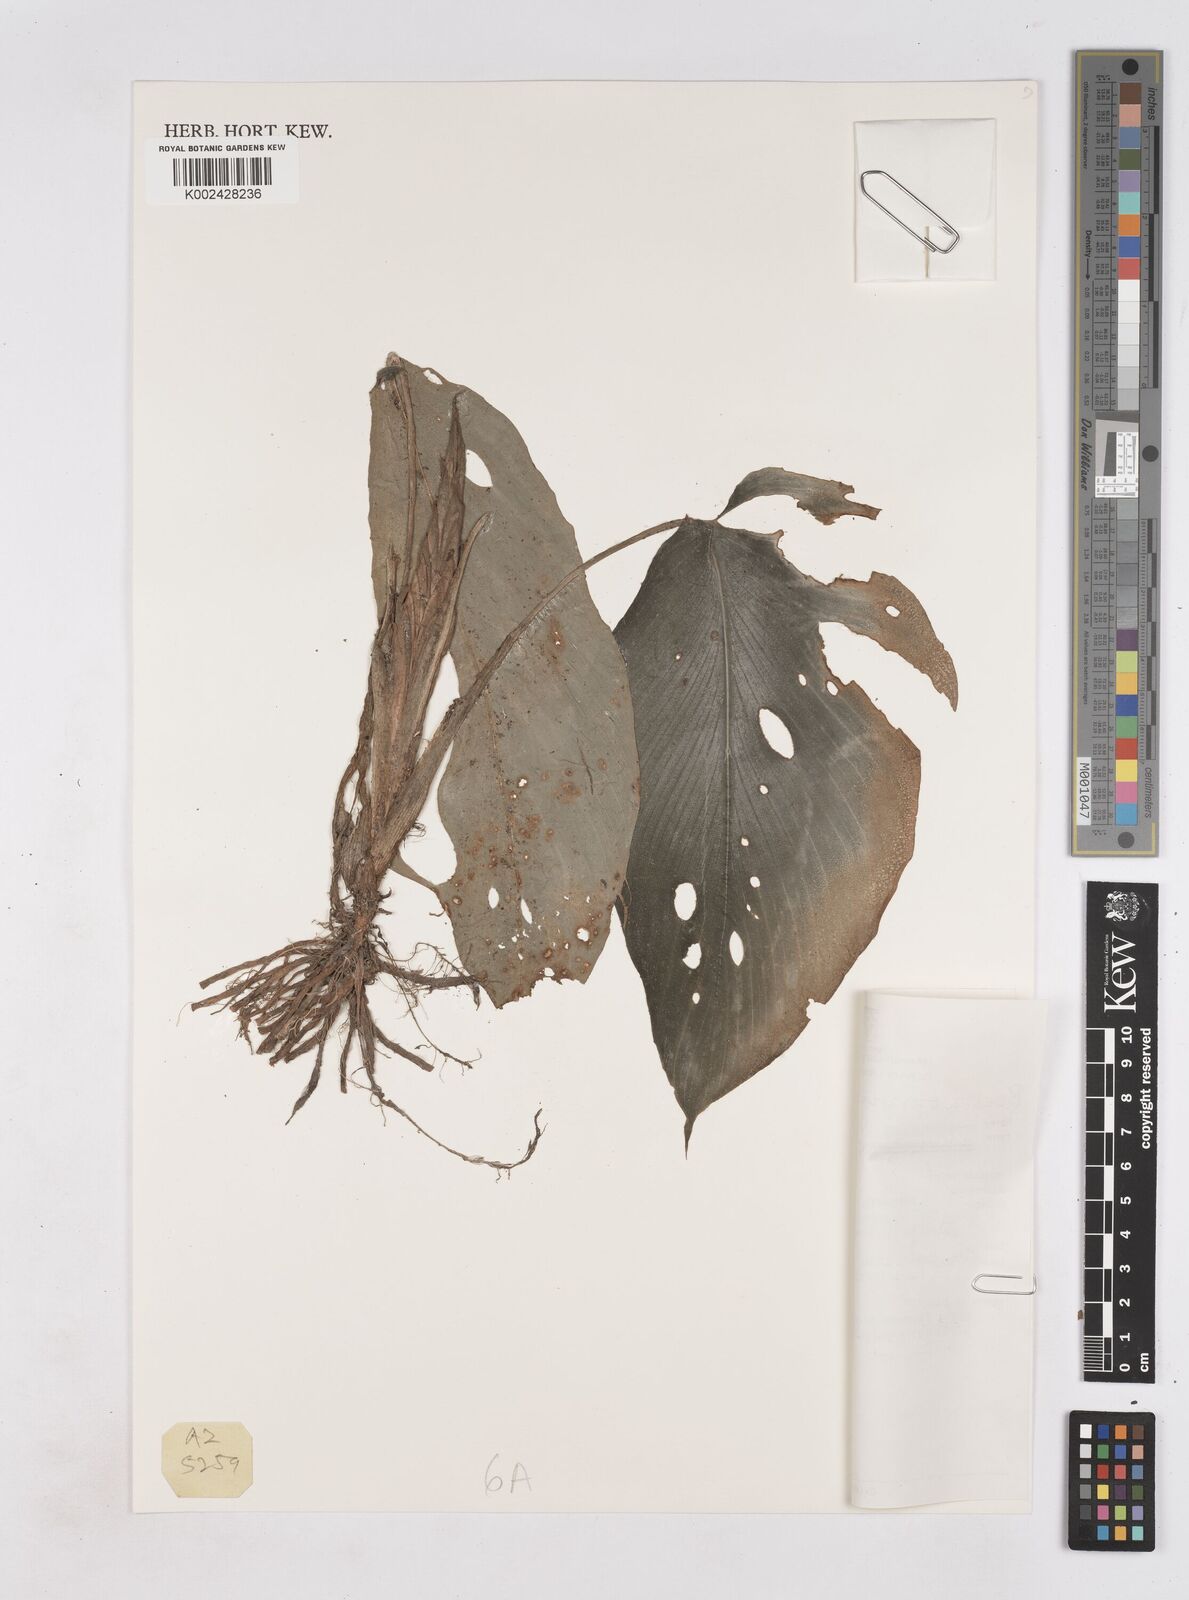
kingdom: Plantae
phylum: Tracheophyta
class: Liliopsida
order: Zingiberales
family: Zingiberaceae
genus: Boesenbergia
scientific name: Boesenbergia plicata
